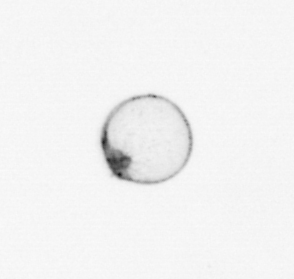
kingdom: Chromista
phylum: Myzozoa
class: Dinophyceae
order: Noctilucales
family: Noctilucaceae
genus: Noctiluca
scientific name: Noctiluca scintillans
